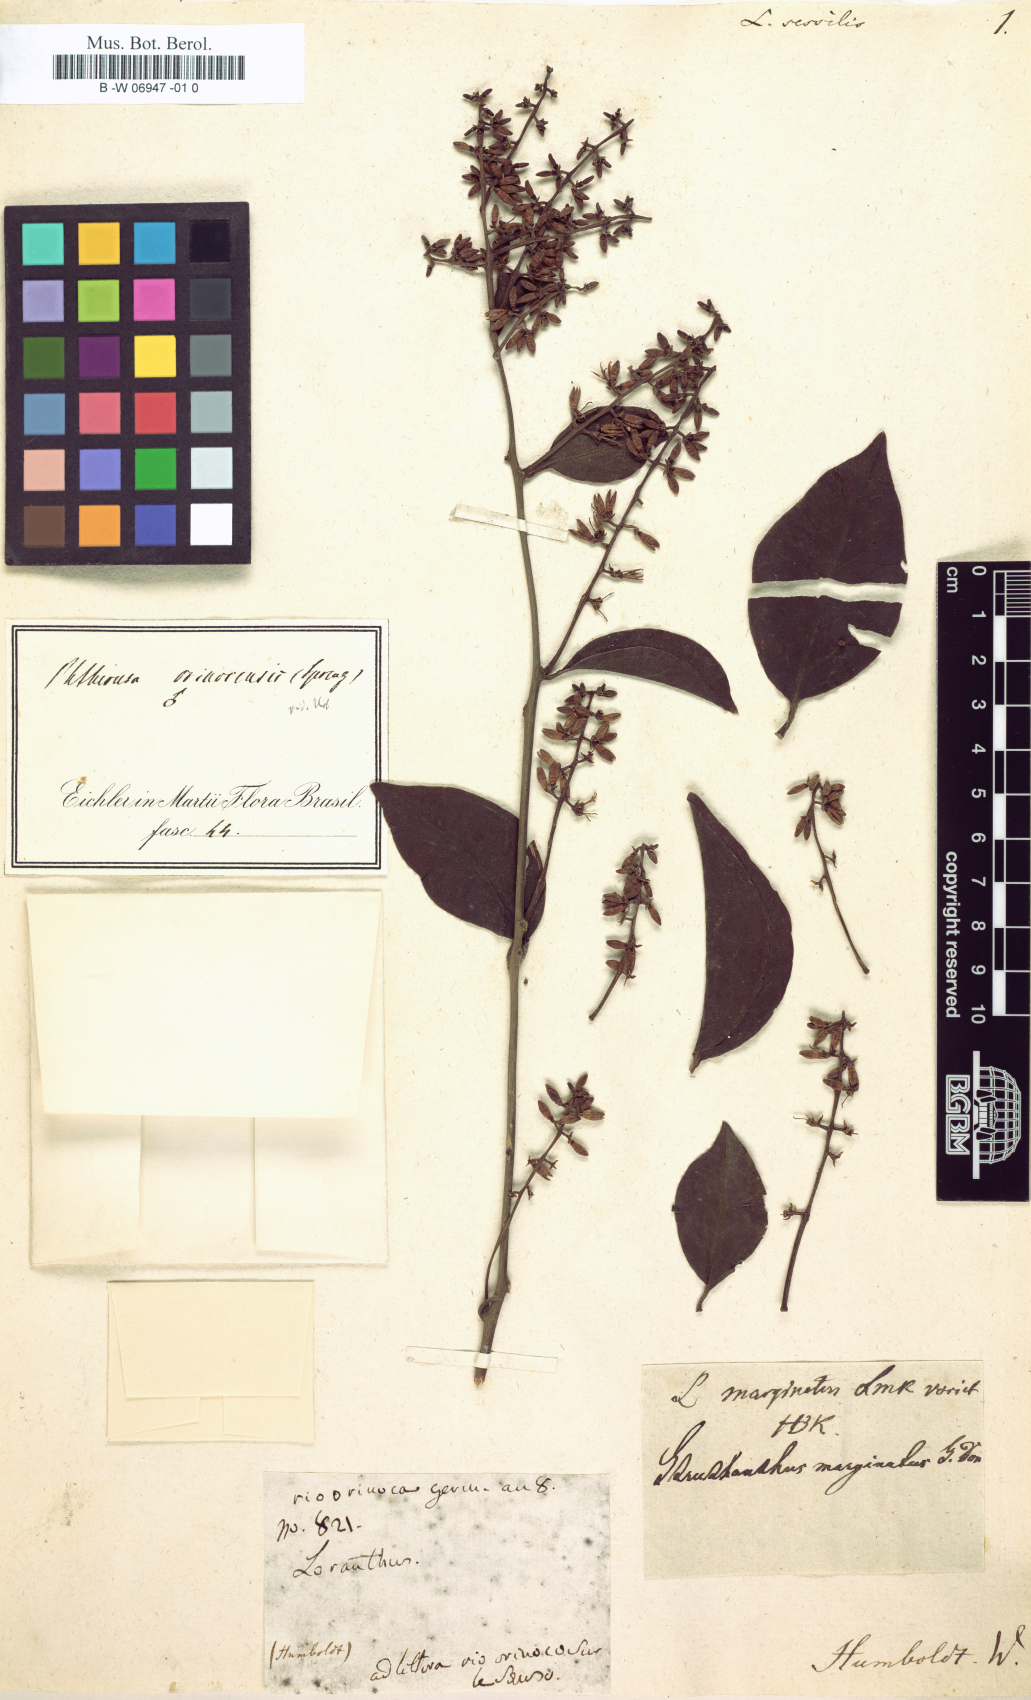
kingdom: Plantae
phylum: Tracheophyta
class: Magnoliopsida
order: Santalales
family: Loranthaceae
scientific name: Loranthaceae
